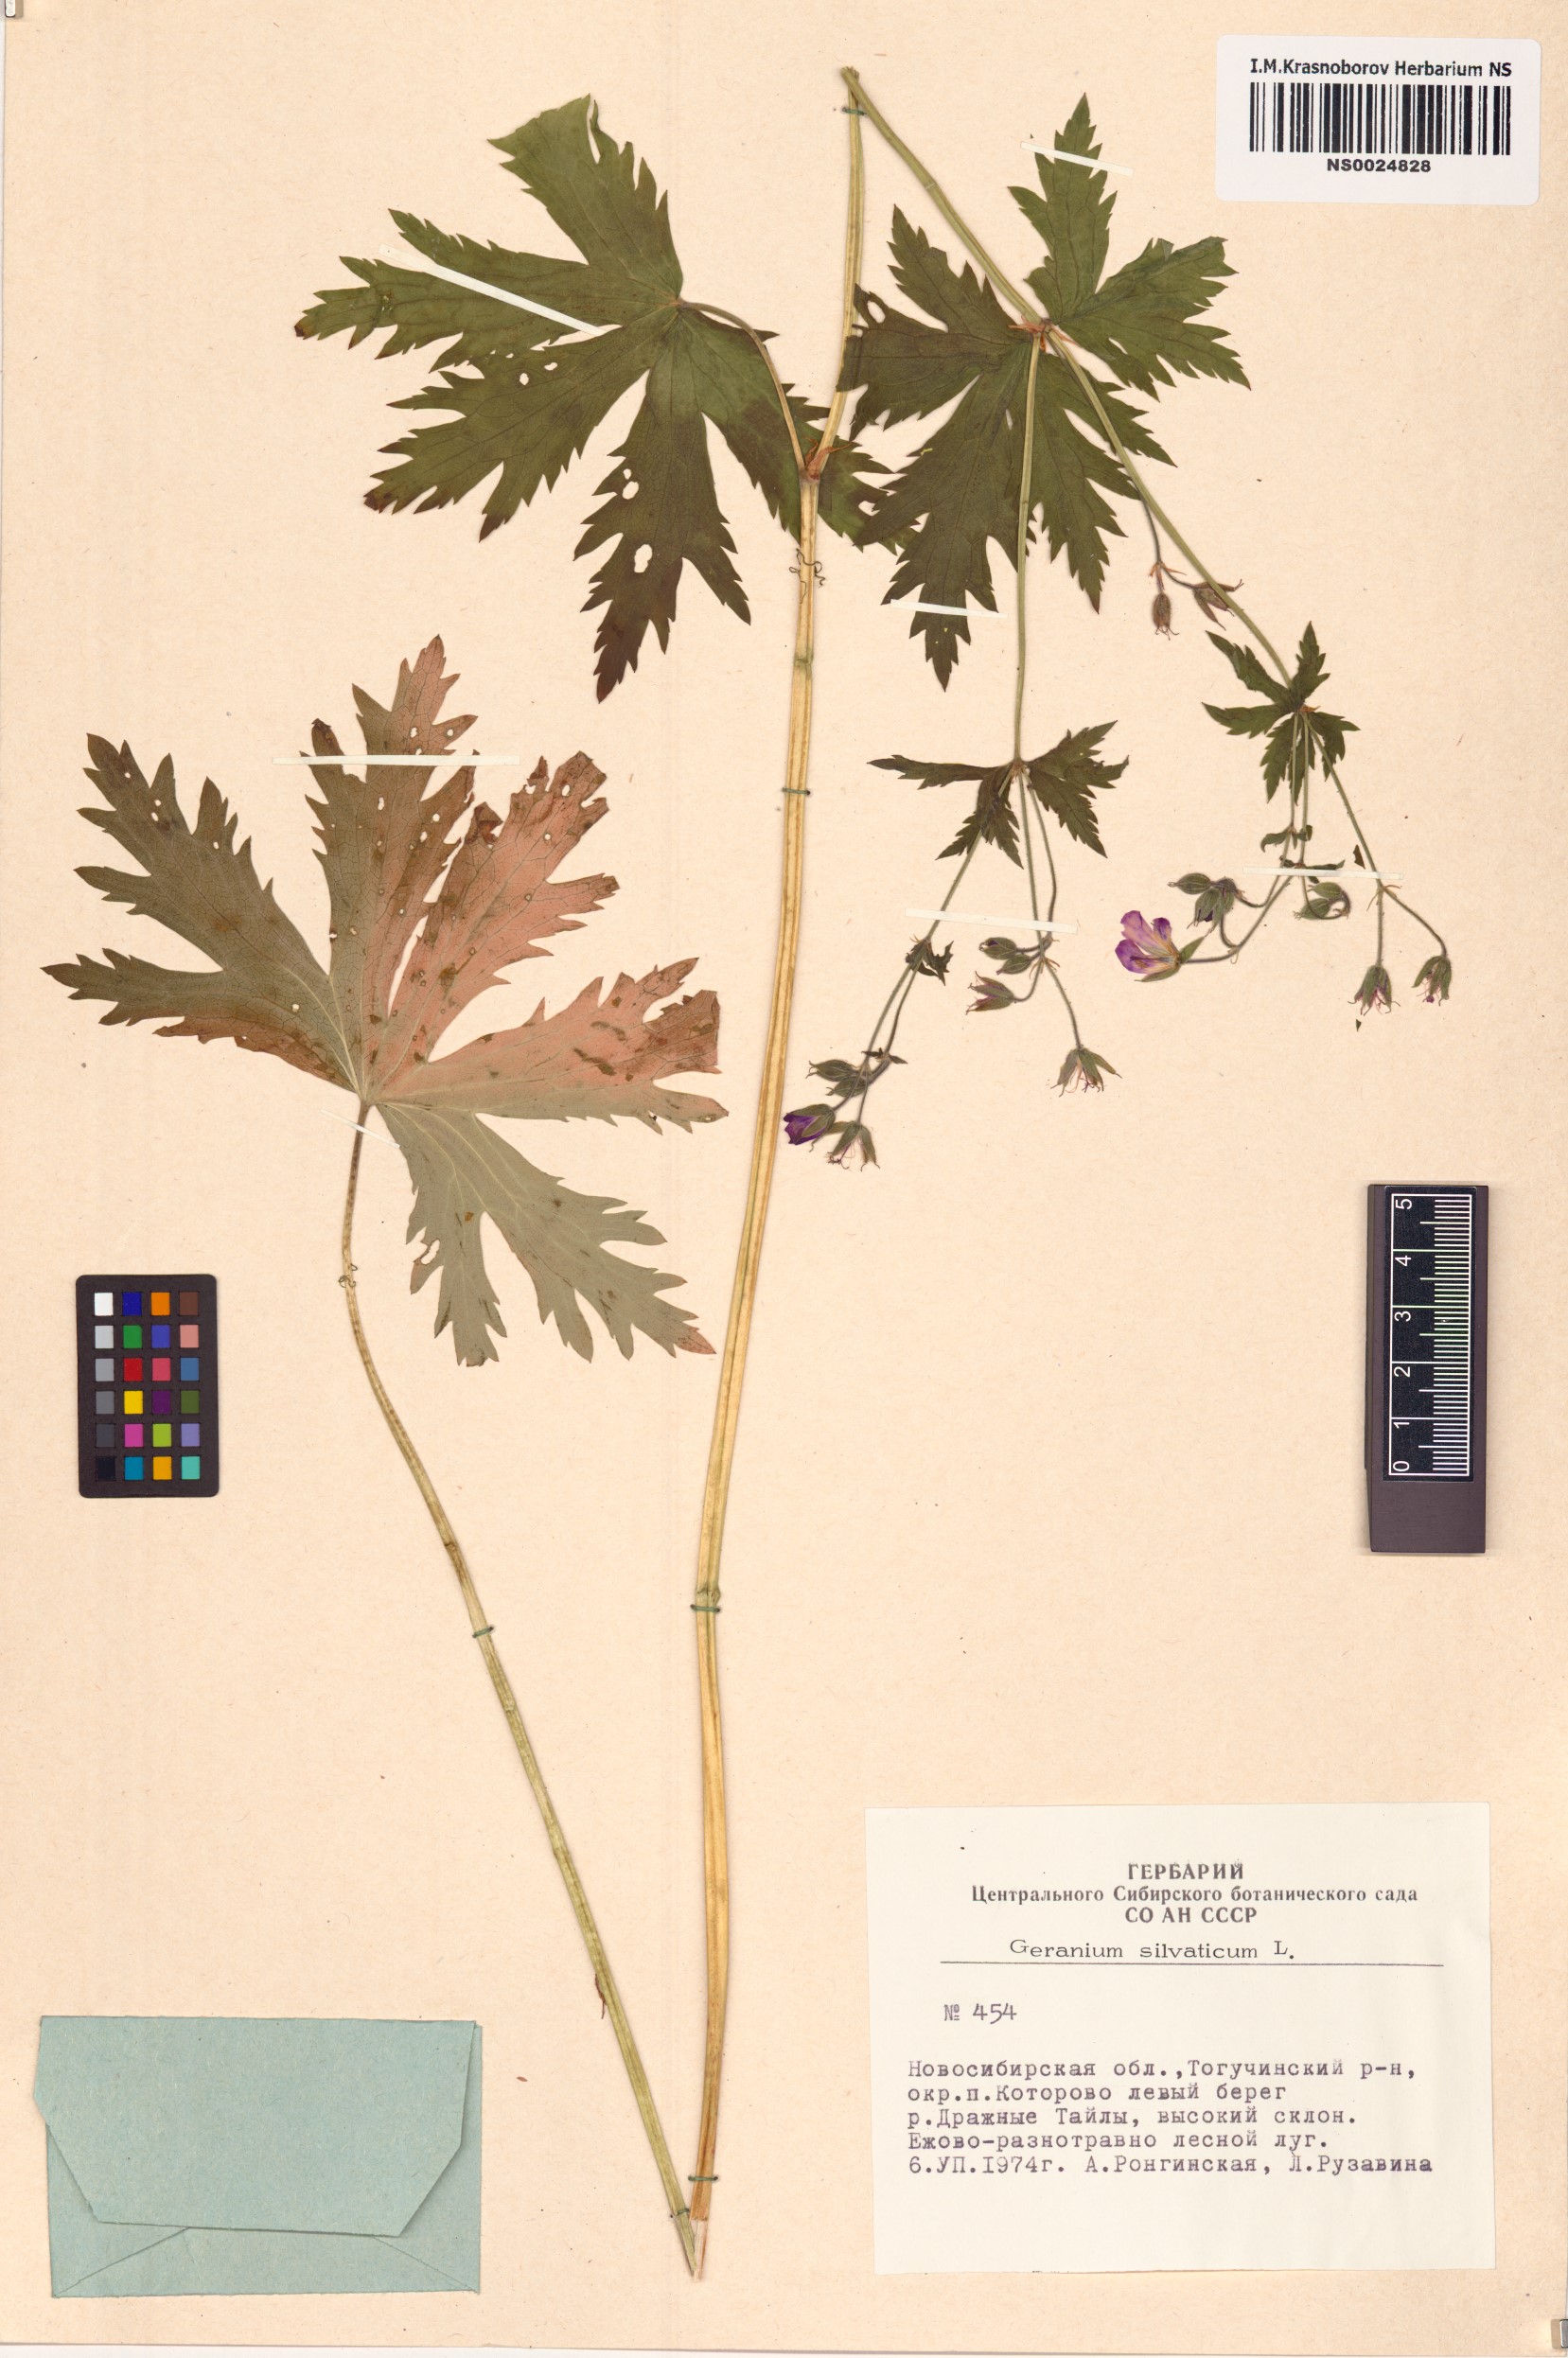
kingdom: Plantae
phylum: Tracheophyta
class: Magnoliopsida
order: Geraniales
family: Geraniaceae
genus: Geranium
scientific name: Geranium sylvaticum
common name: Wood crane's-bill
